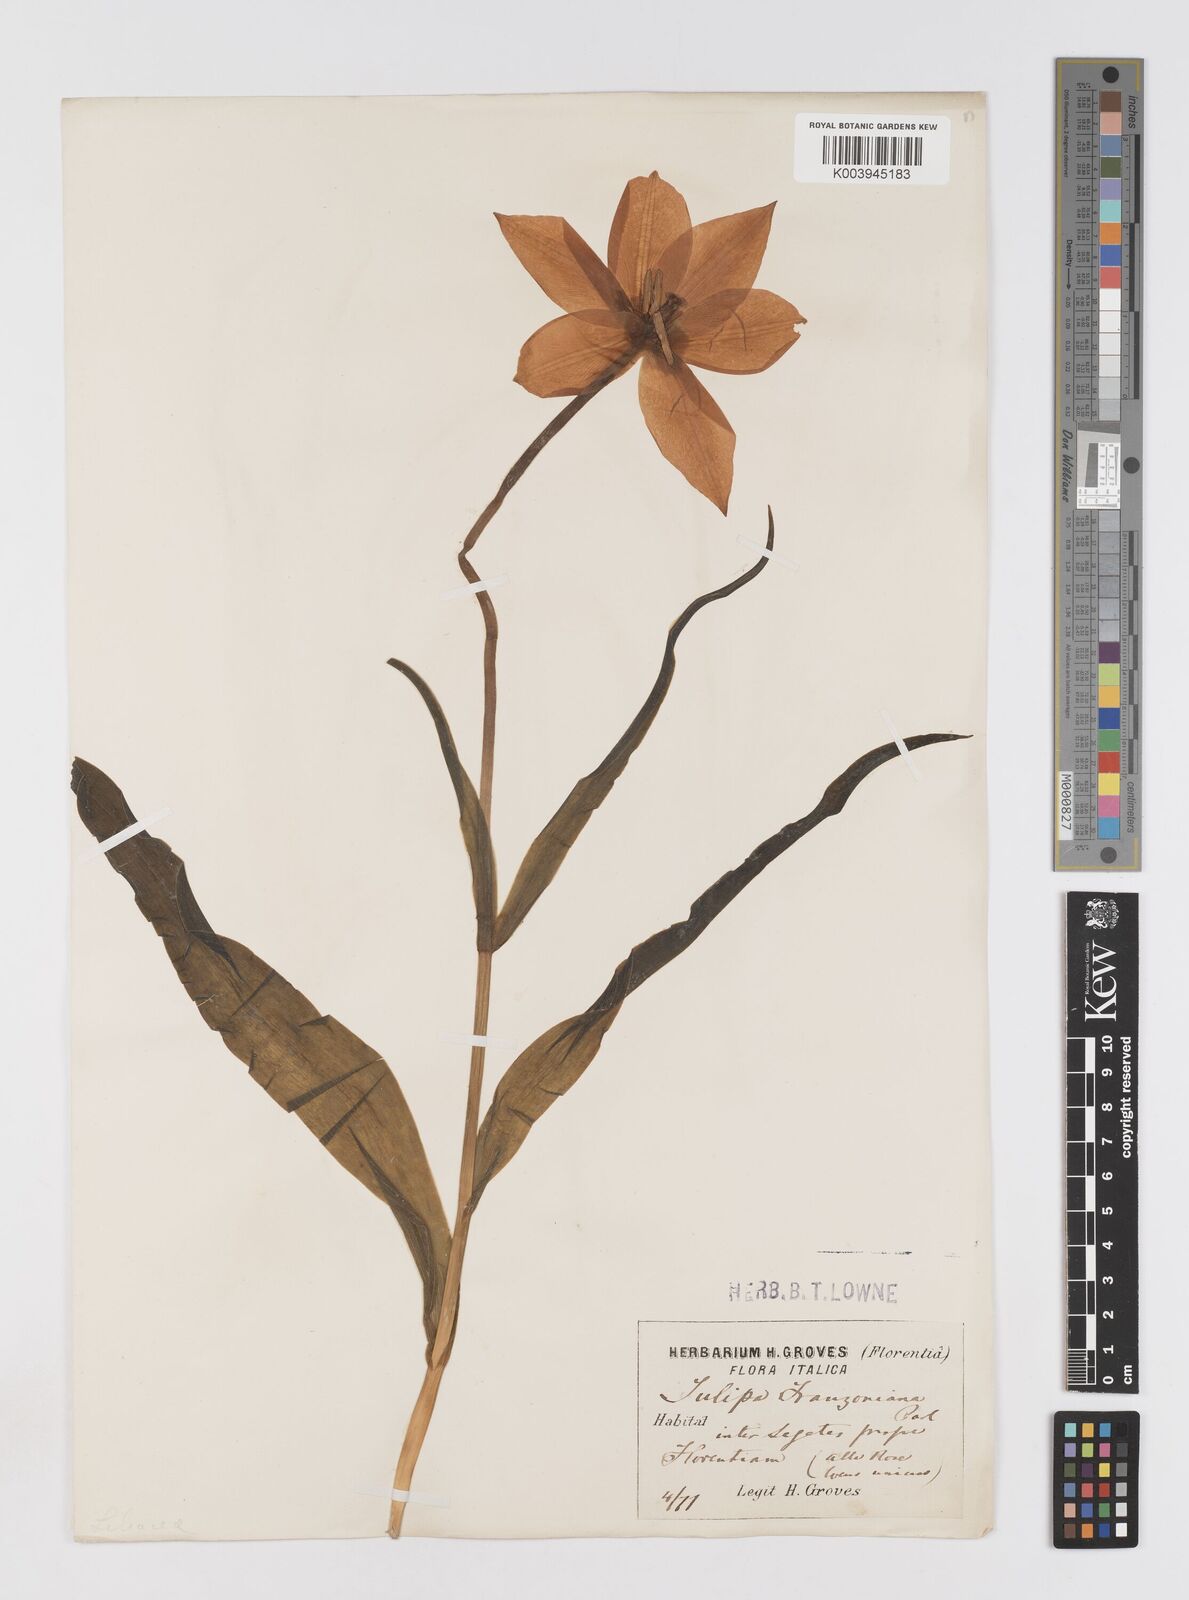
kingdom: Plantae
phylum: Tracheophyta
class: Liliopsida
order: Liliales
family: Liliaceae
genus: Tulipa
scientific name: Tulipa gesneriana
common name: Garden tulip
